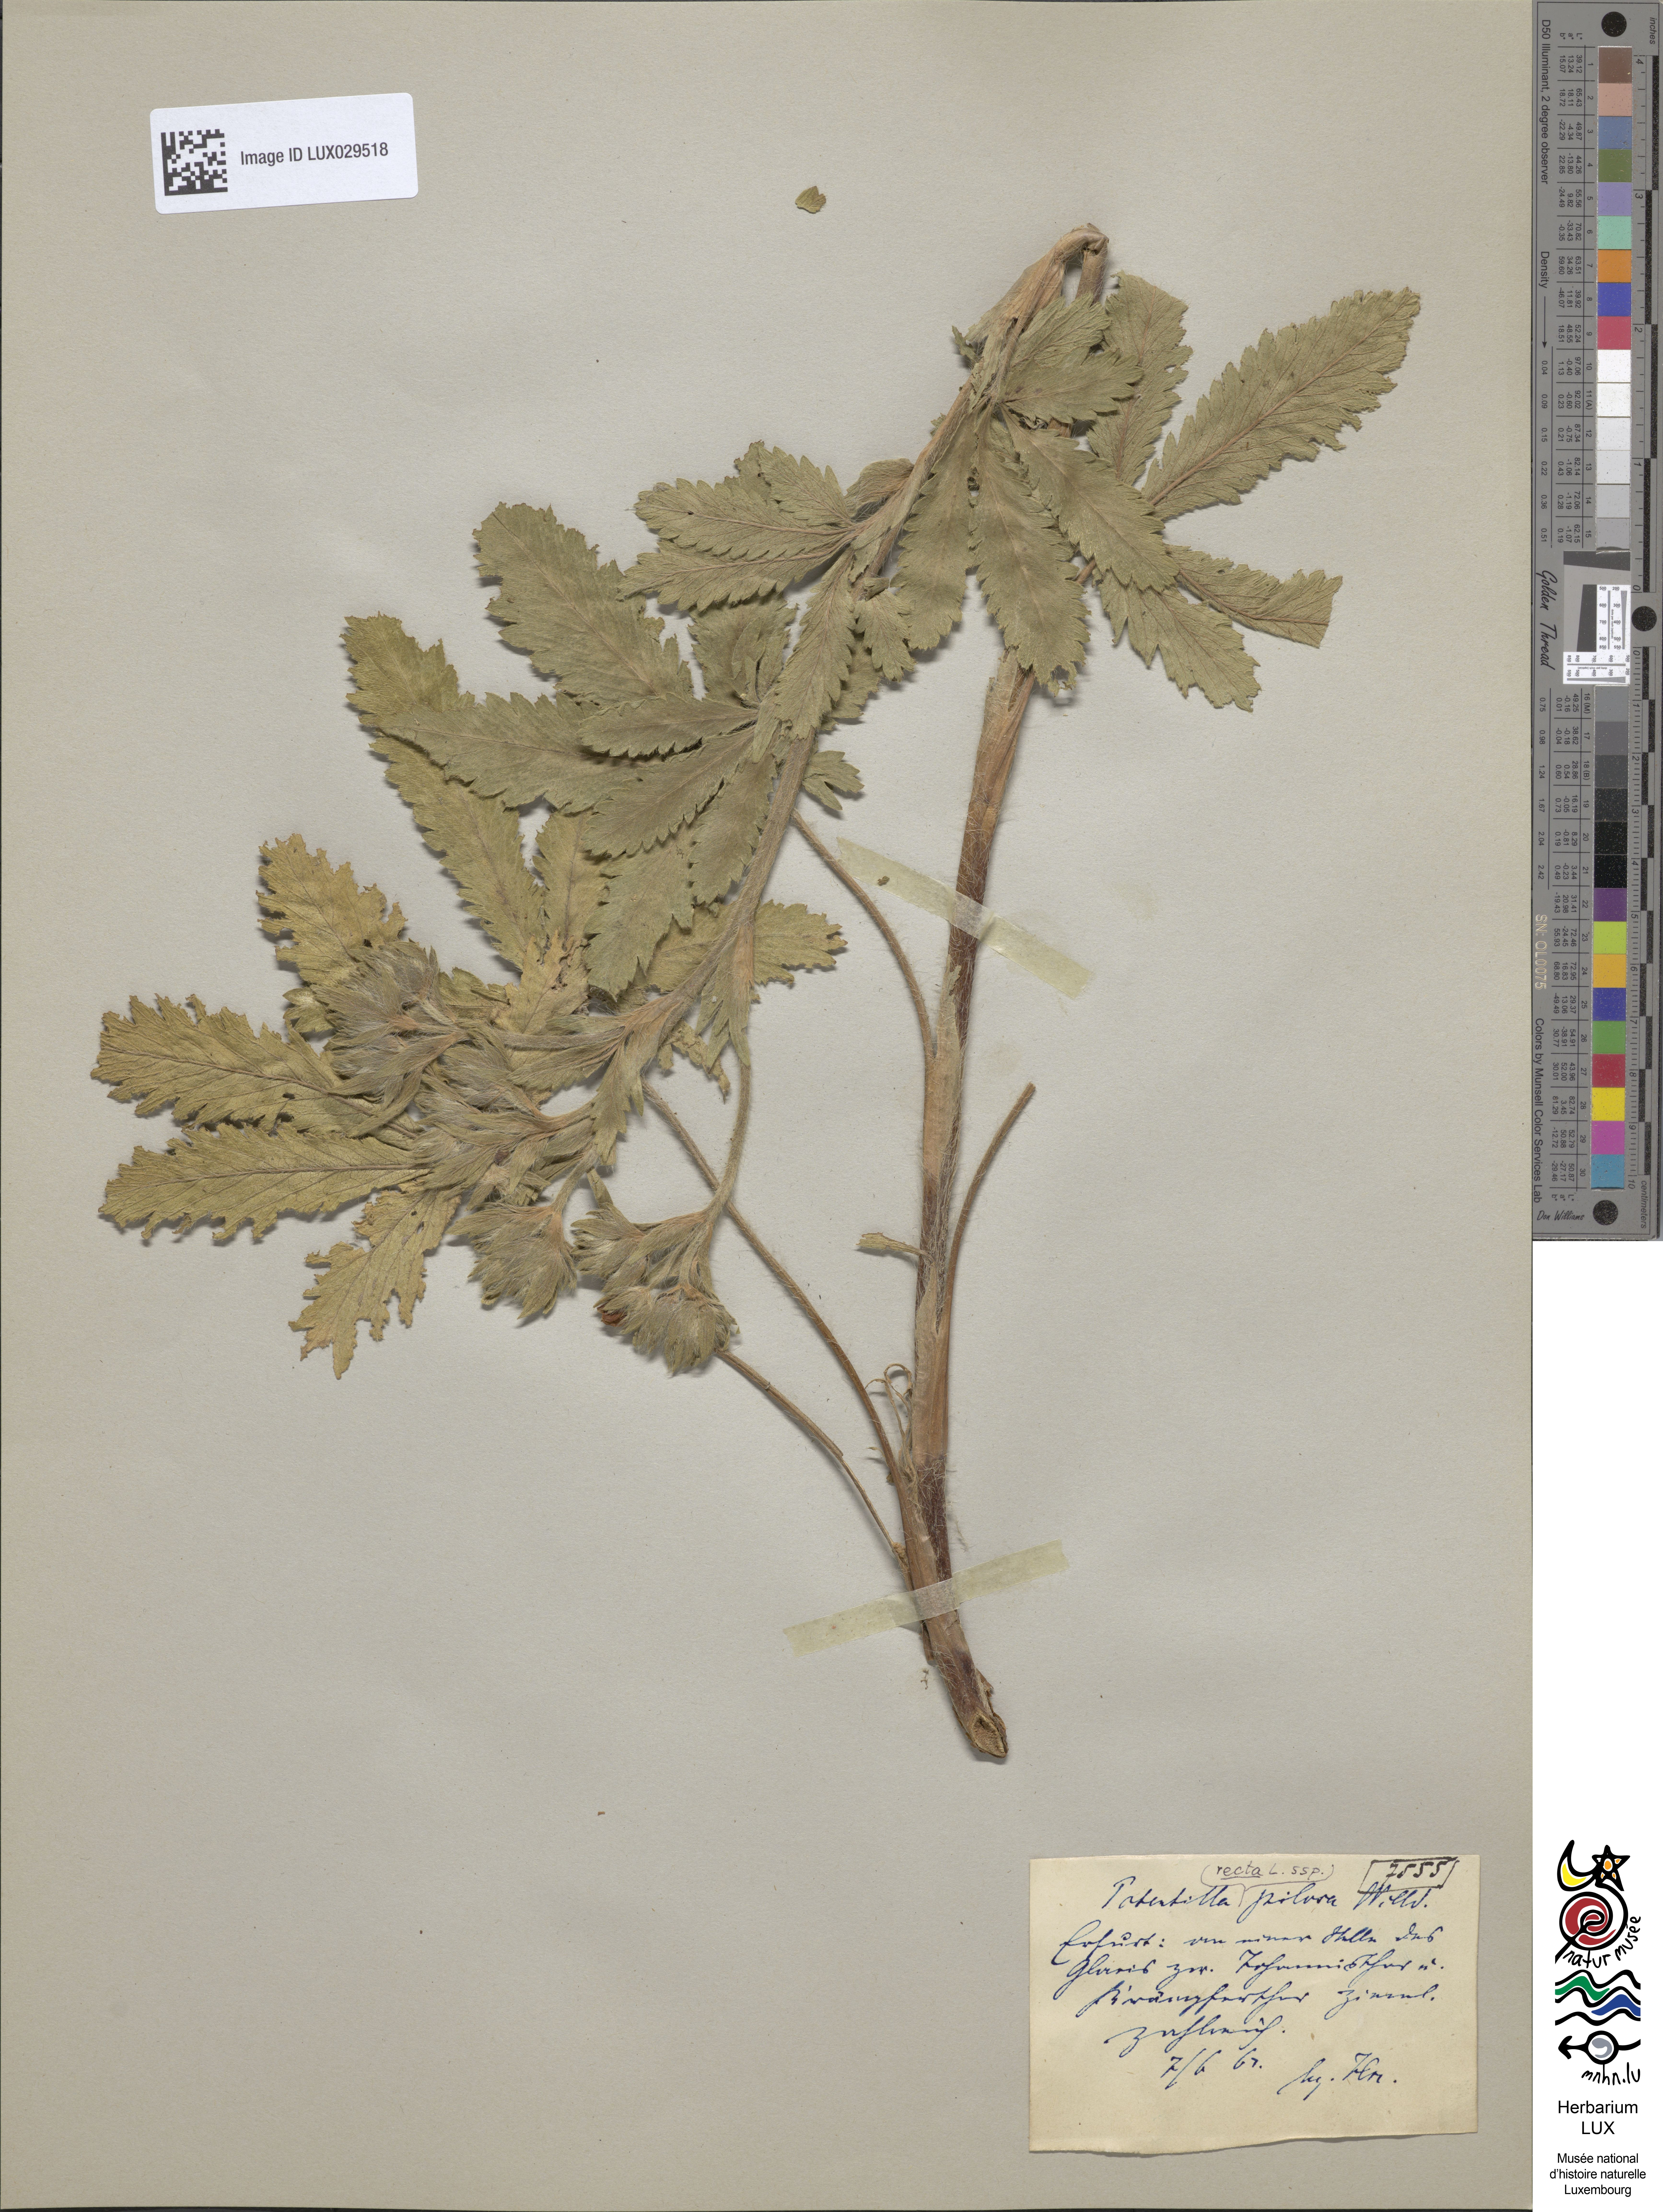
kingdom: Plantae
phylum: Tracheophyta
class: Magnoliopsida
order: Rosales
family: Rosaceae
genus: Potentilla
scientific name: Potentilla recta
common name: Sulphur cinquefoil
